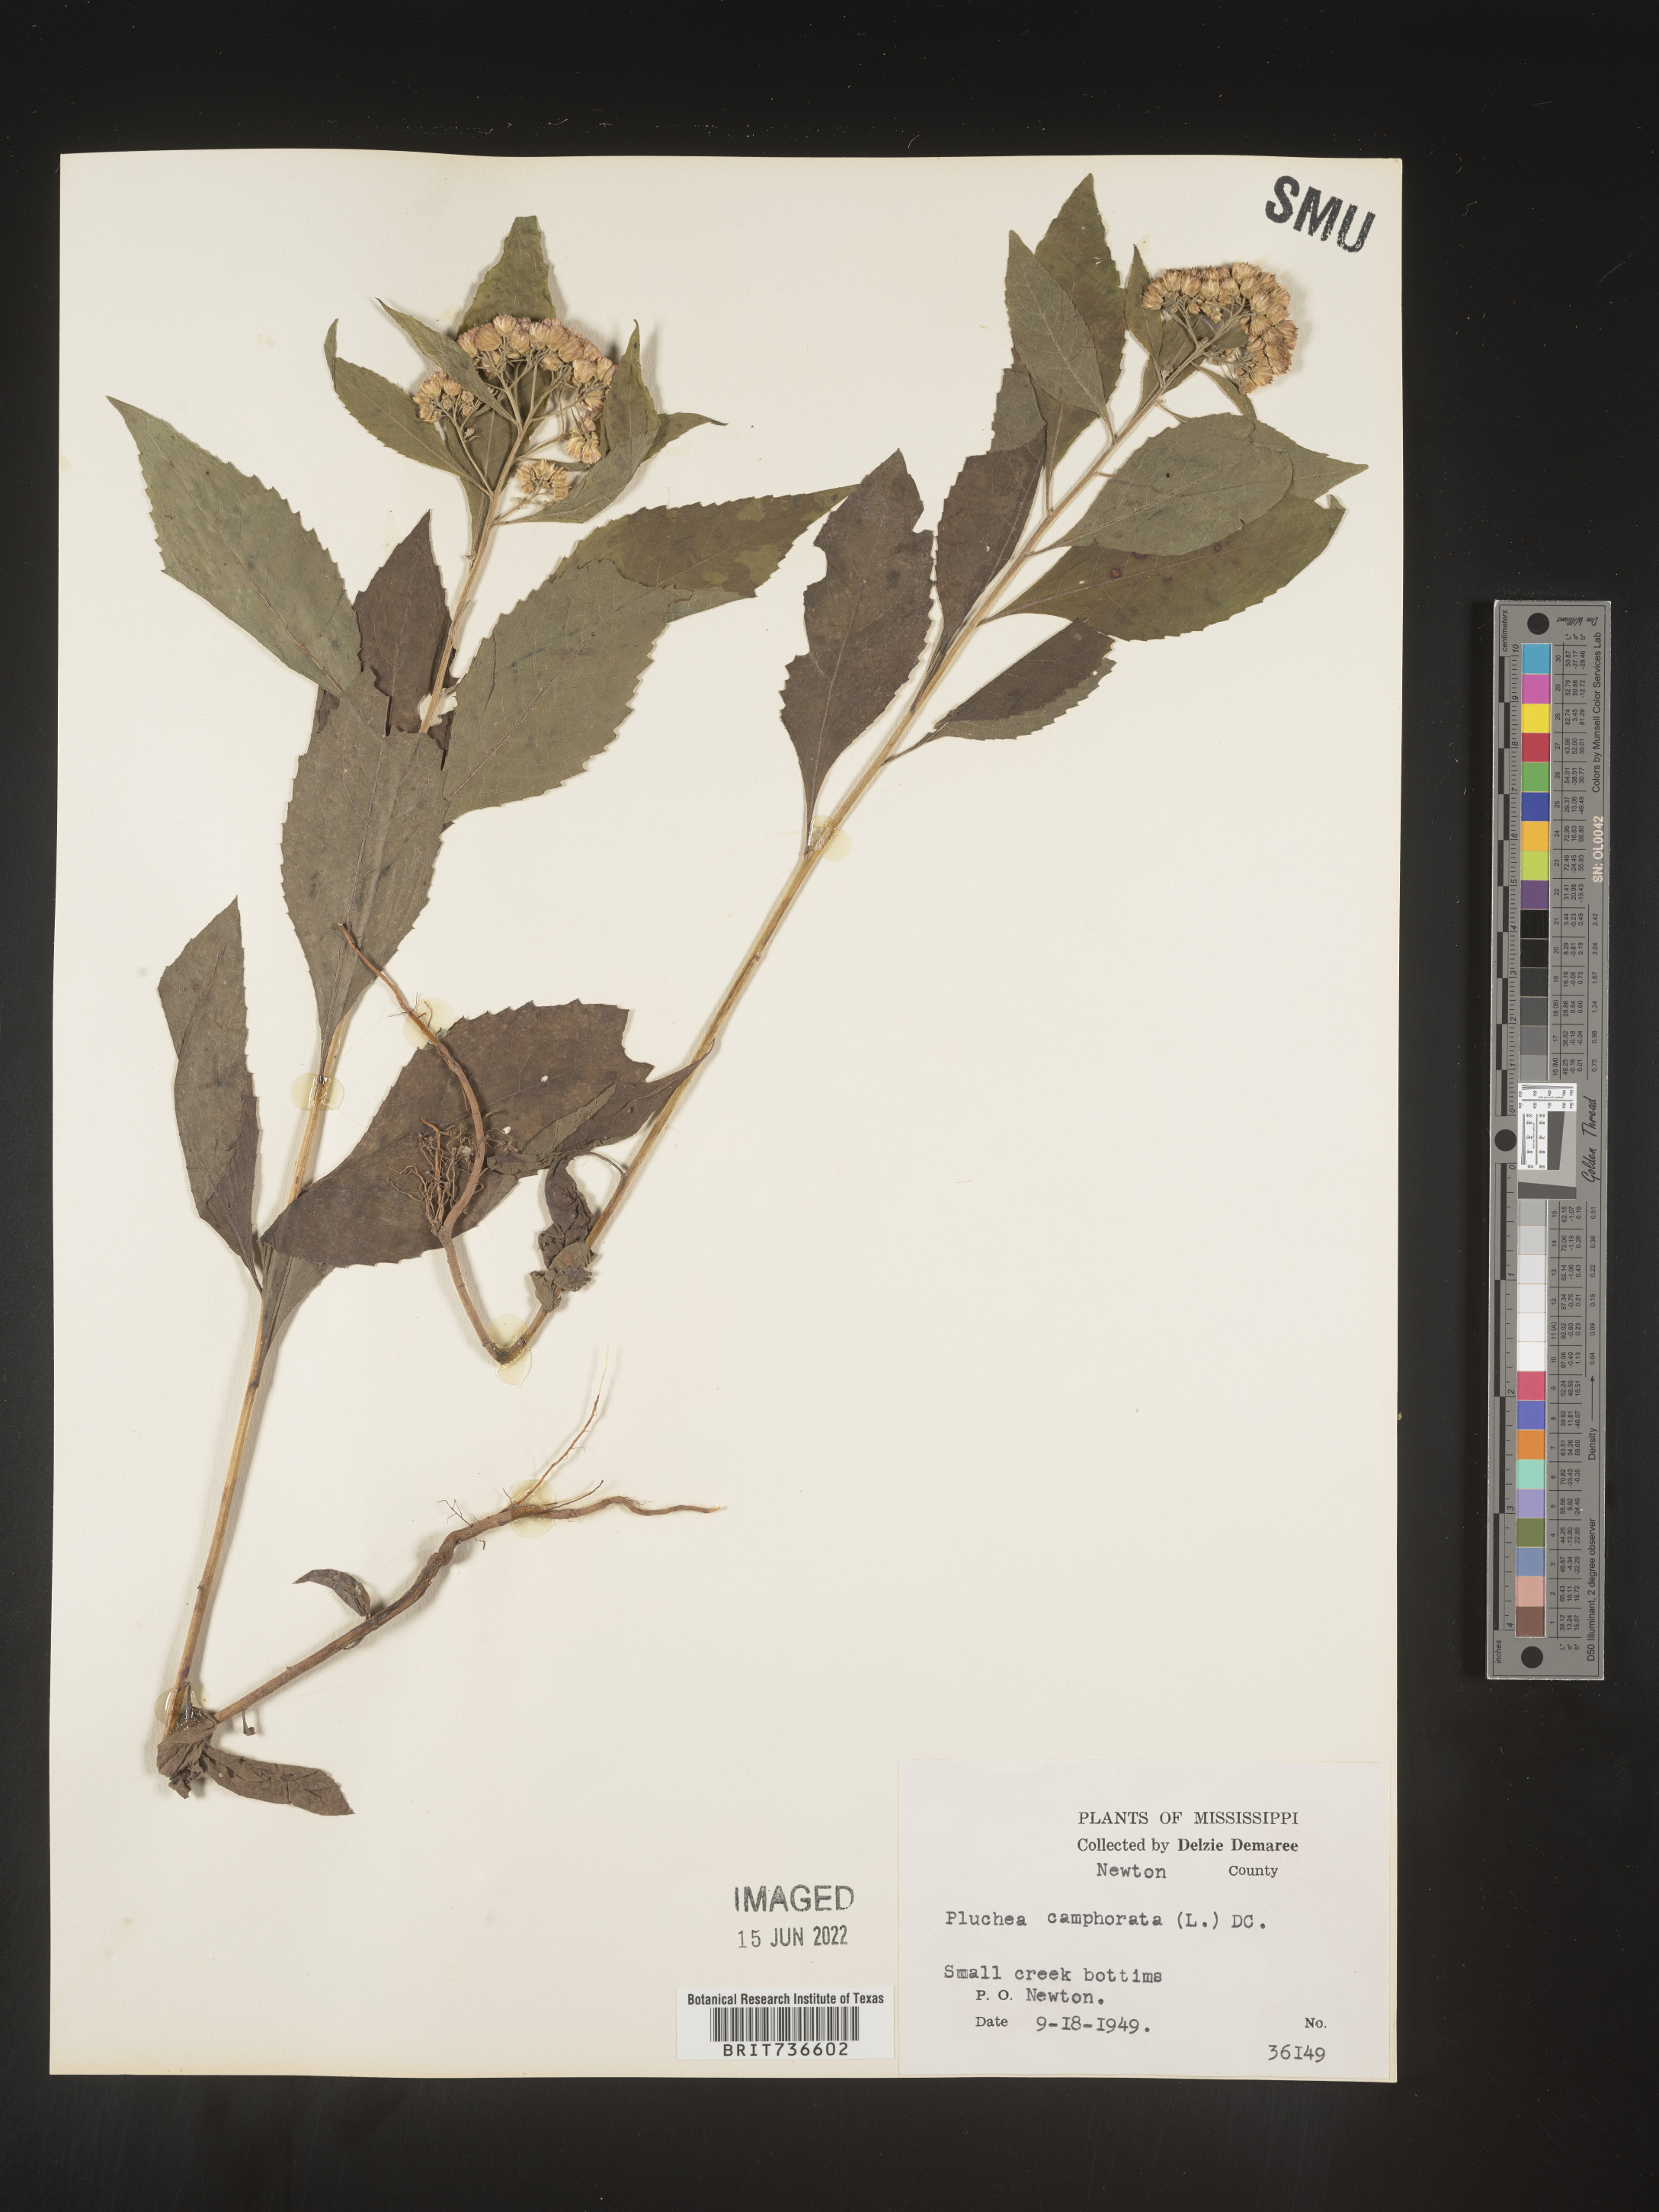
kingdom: Plantae
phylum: Tracheophyta
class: Magnoliopsida
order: Asterales
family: Asteraceae
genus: Pluchea
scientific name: Pluchea camphorata
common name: Camphor pluchea
